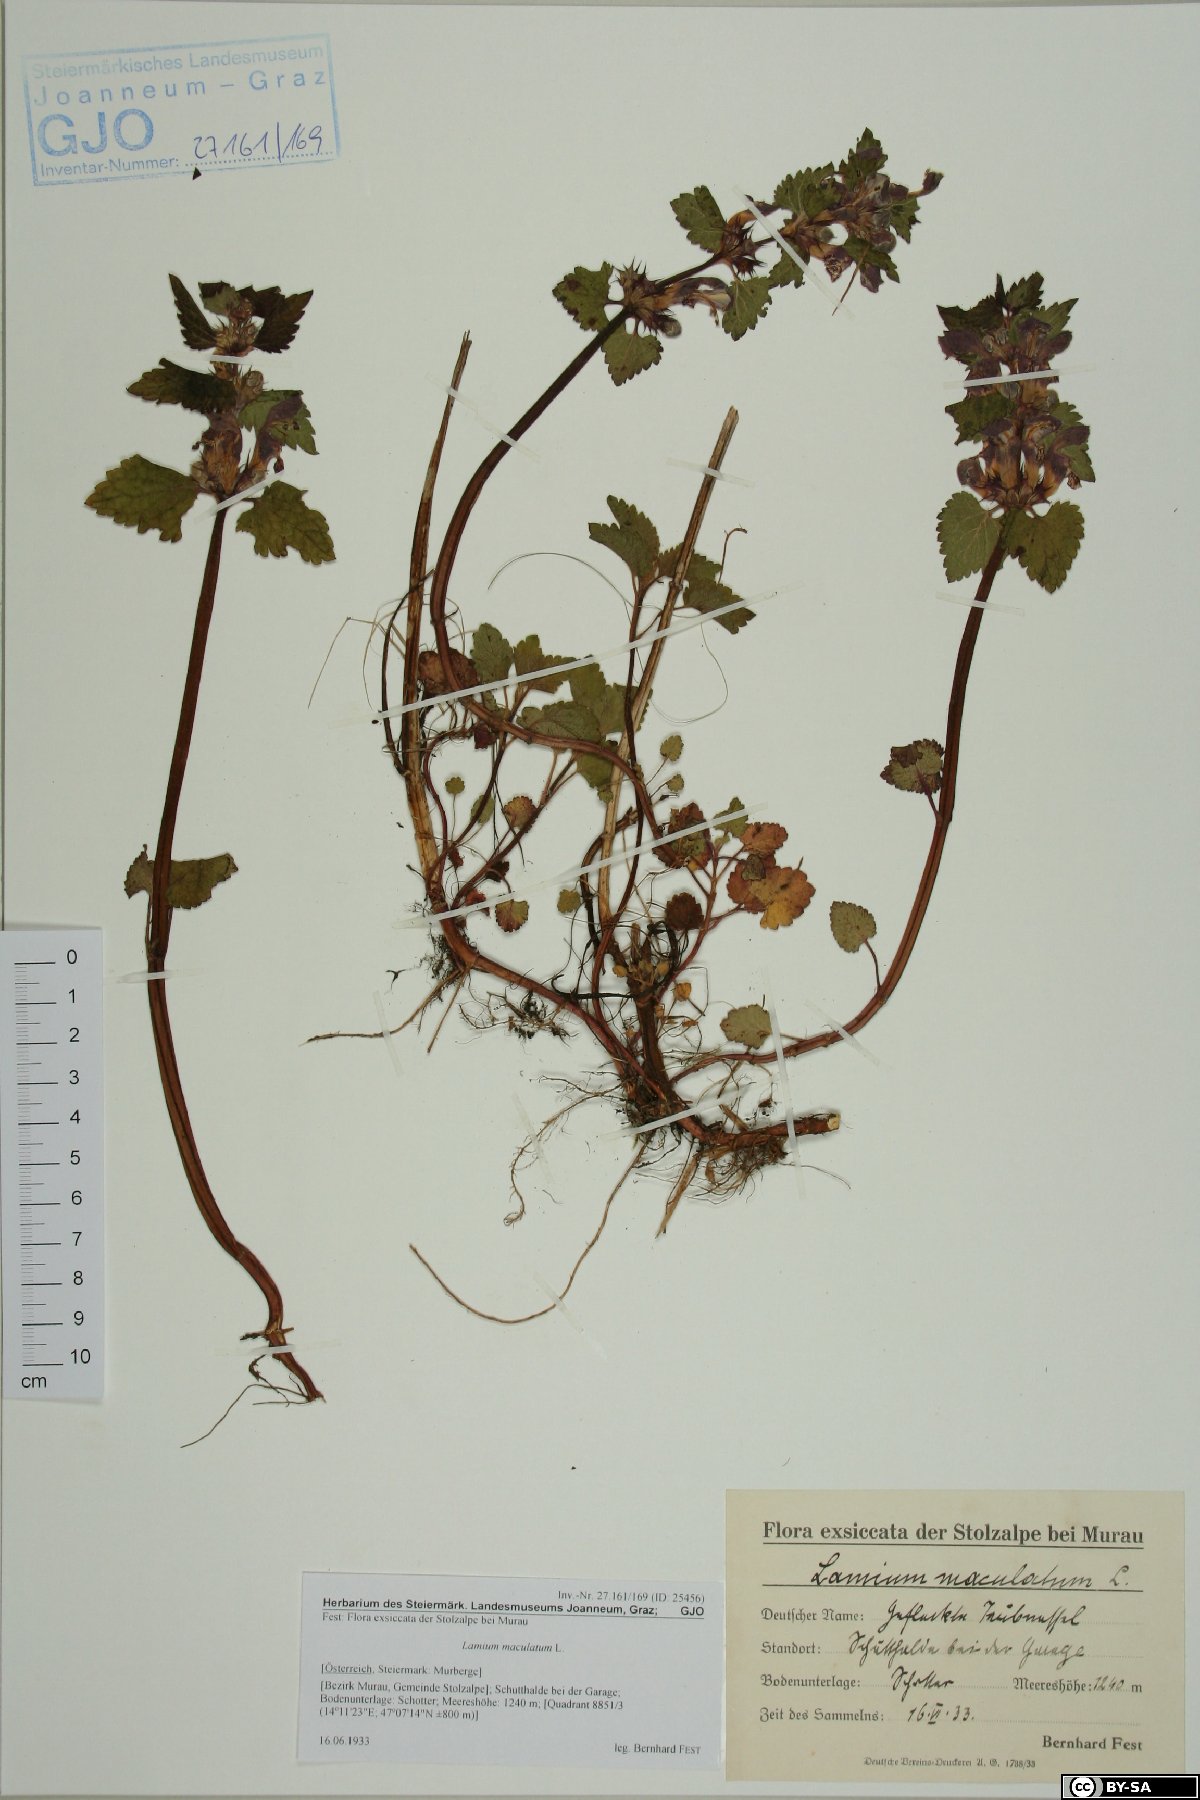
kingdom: Plantae
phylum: Tracheophyta
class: Magnoliopsida
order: Lamiales
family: Lamiaceae
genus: Lamium
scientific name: Lamium maculatum
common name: Spotted dead-nettle
